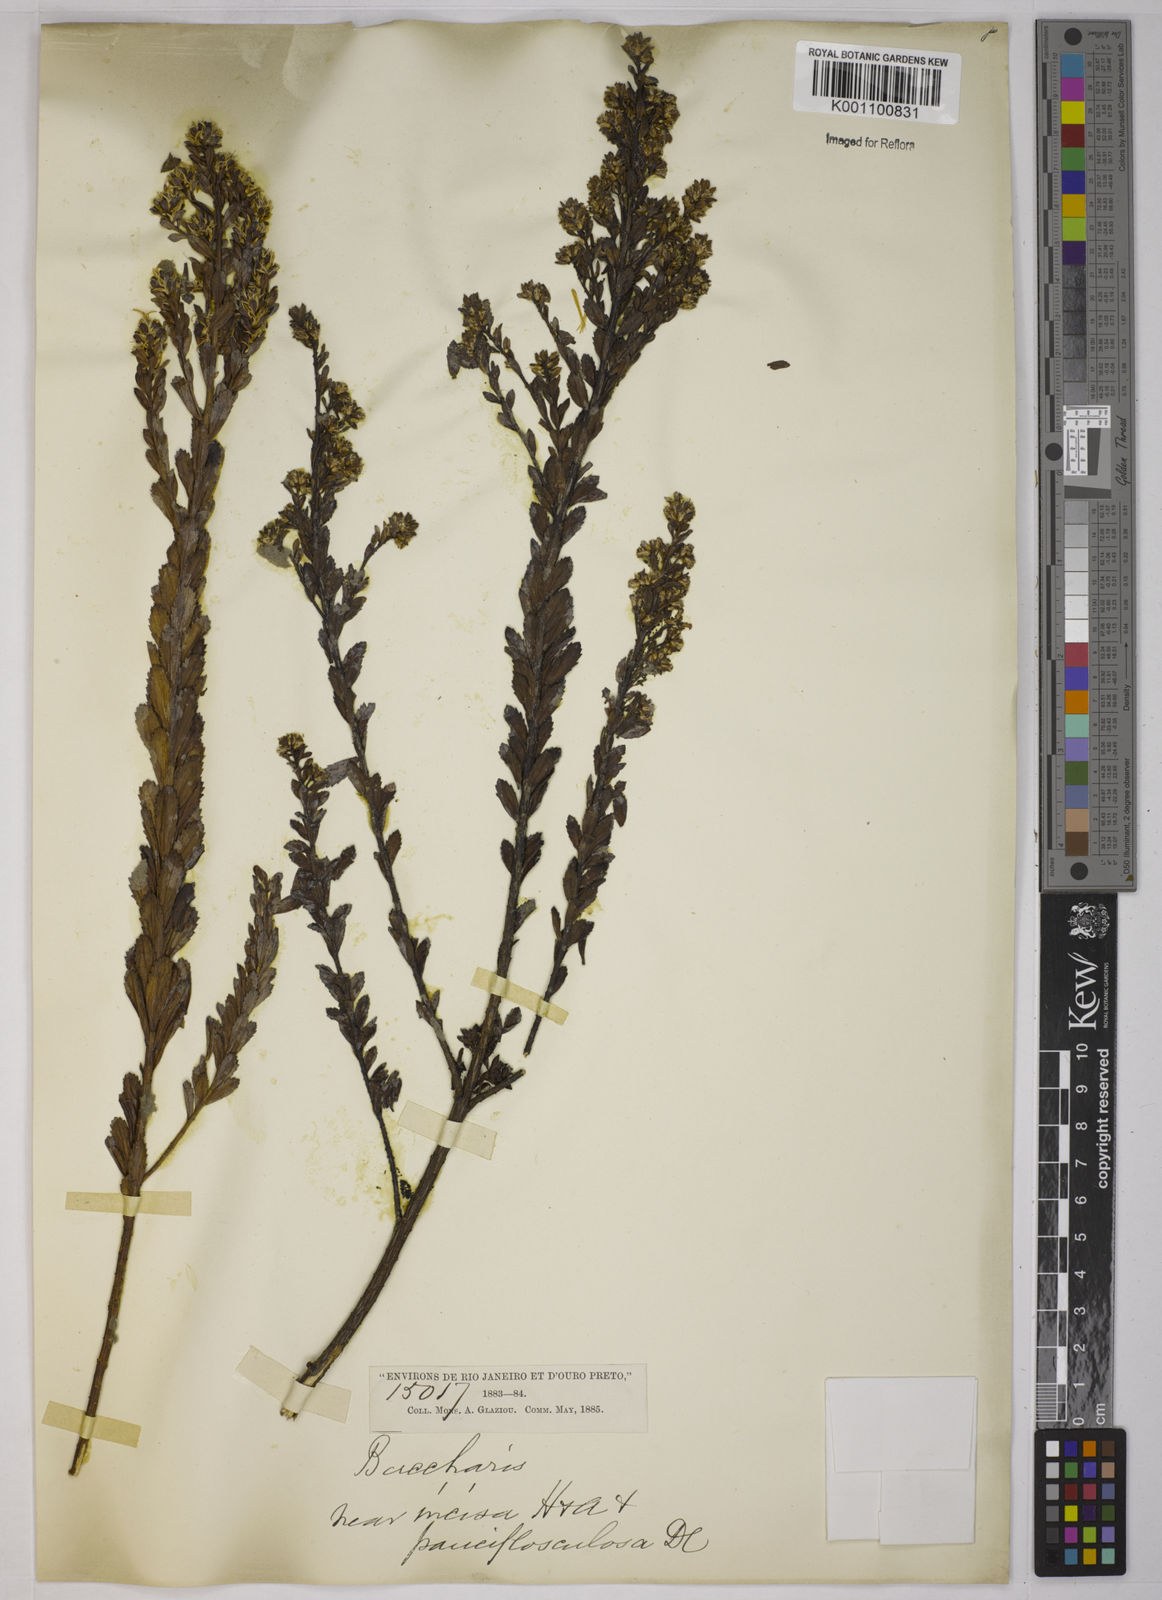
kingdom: Plantae
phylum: Tracheophyta
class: Magnoliopsida
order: Asterales
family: Asteraceae
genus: Baccharis
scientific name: Baccharis incisa
